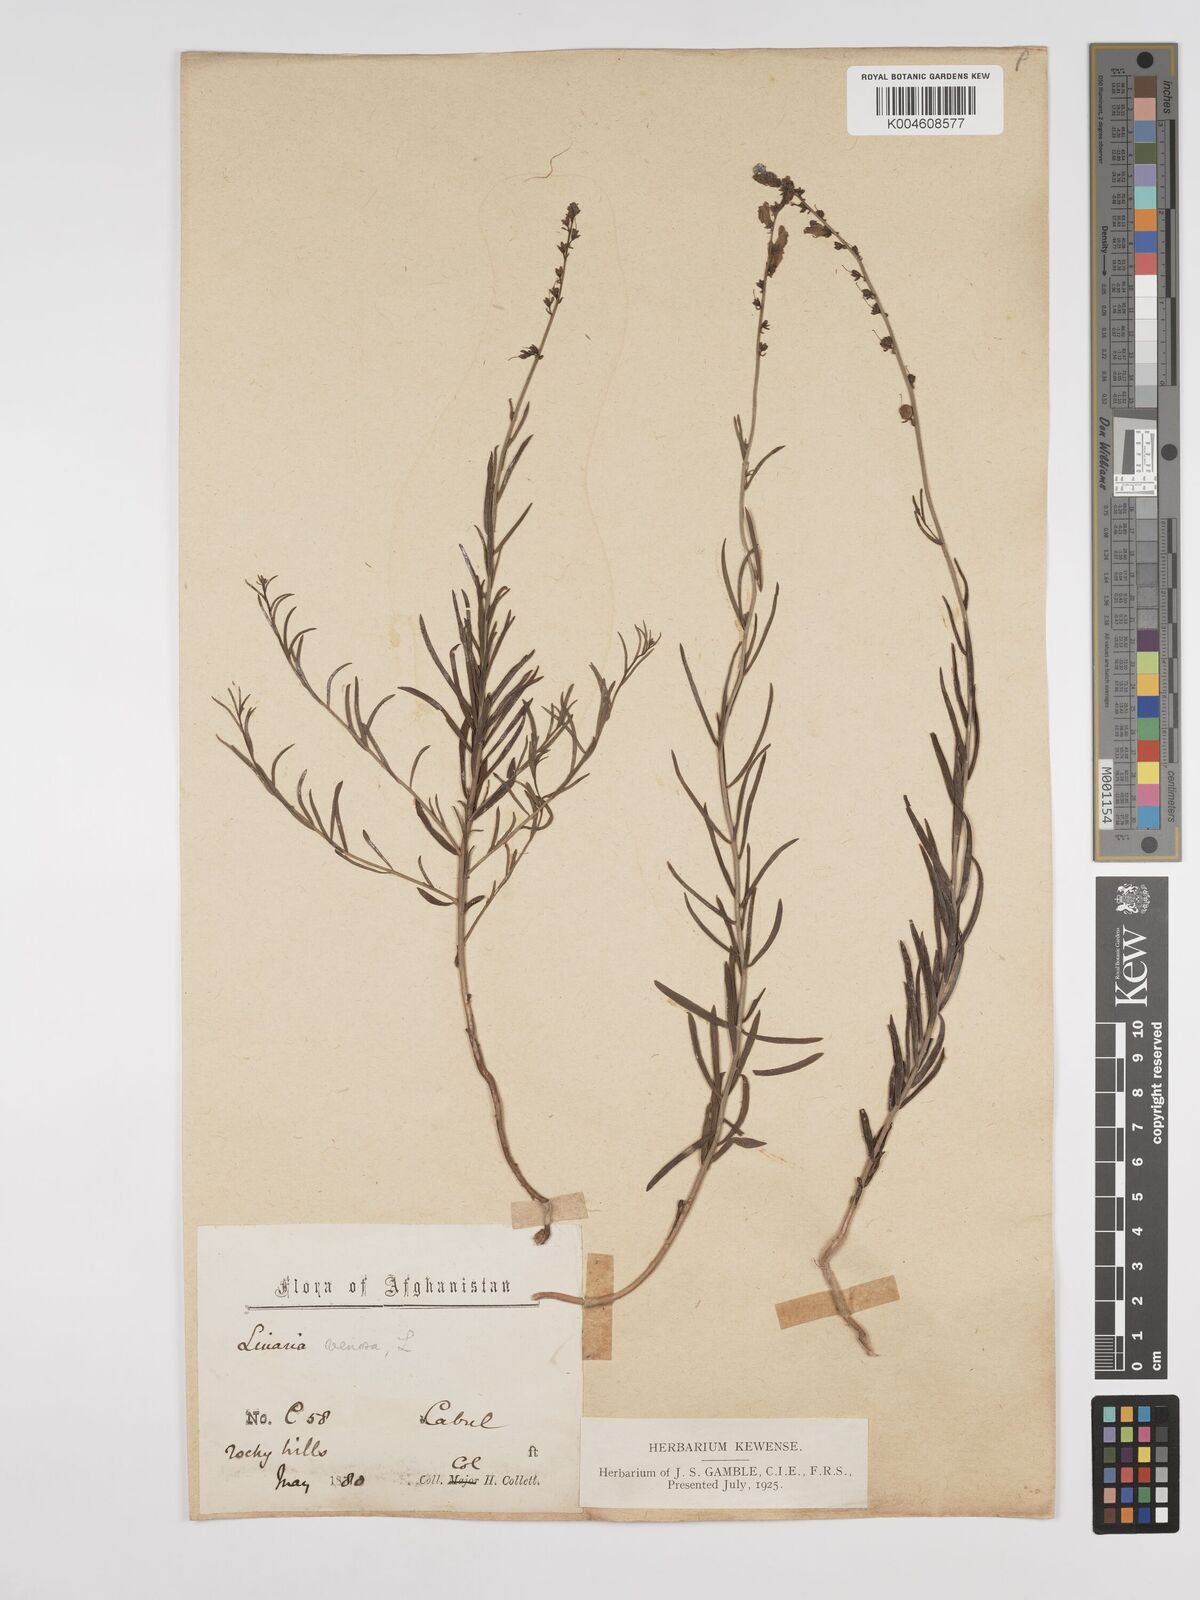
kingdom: Plantae
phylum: Tracheophyta
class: Magnoliopsida
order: Lamiales
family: Plantaginaceae
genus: Kickxia
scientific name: Kickxia
